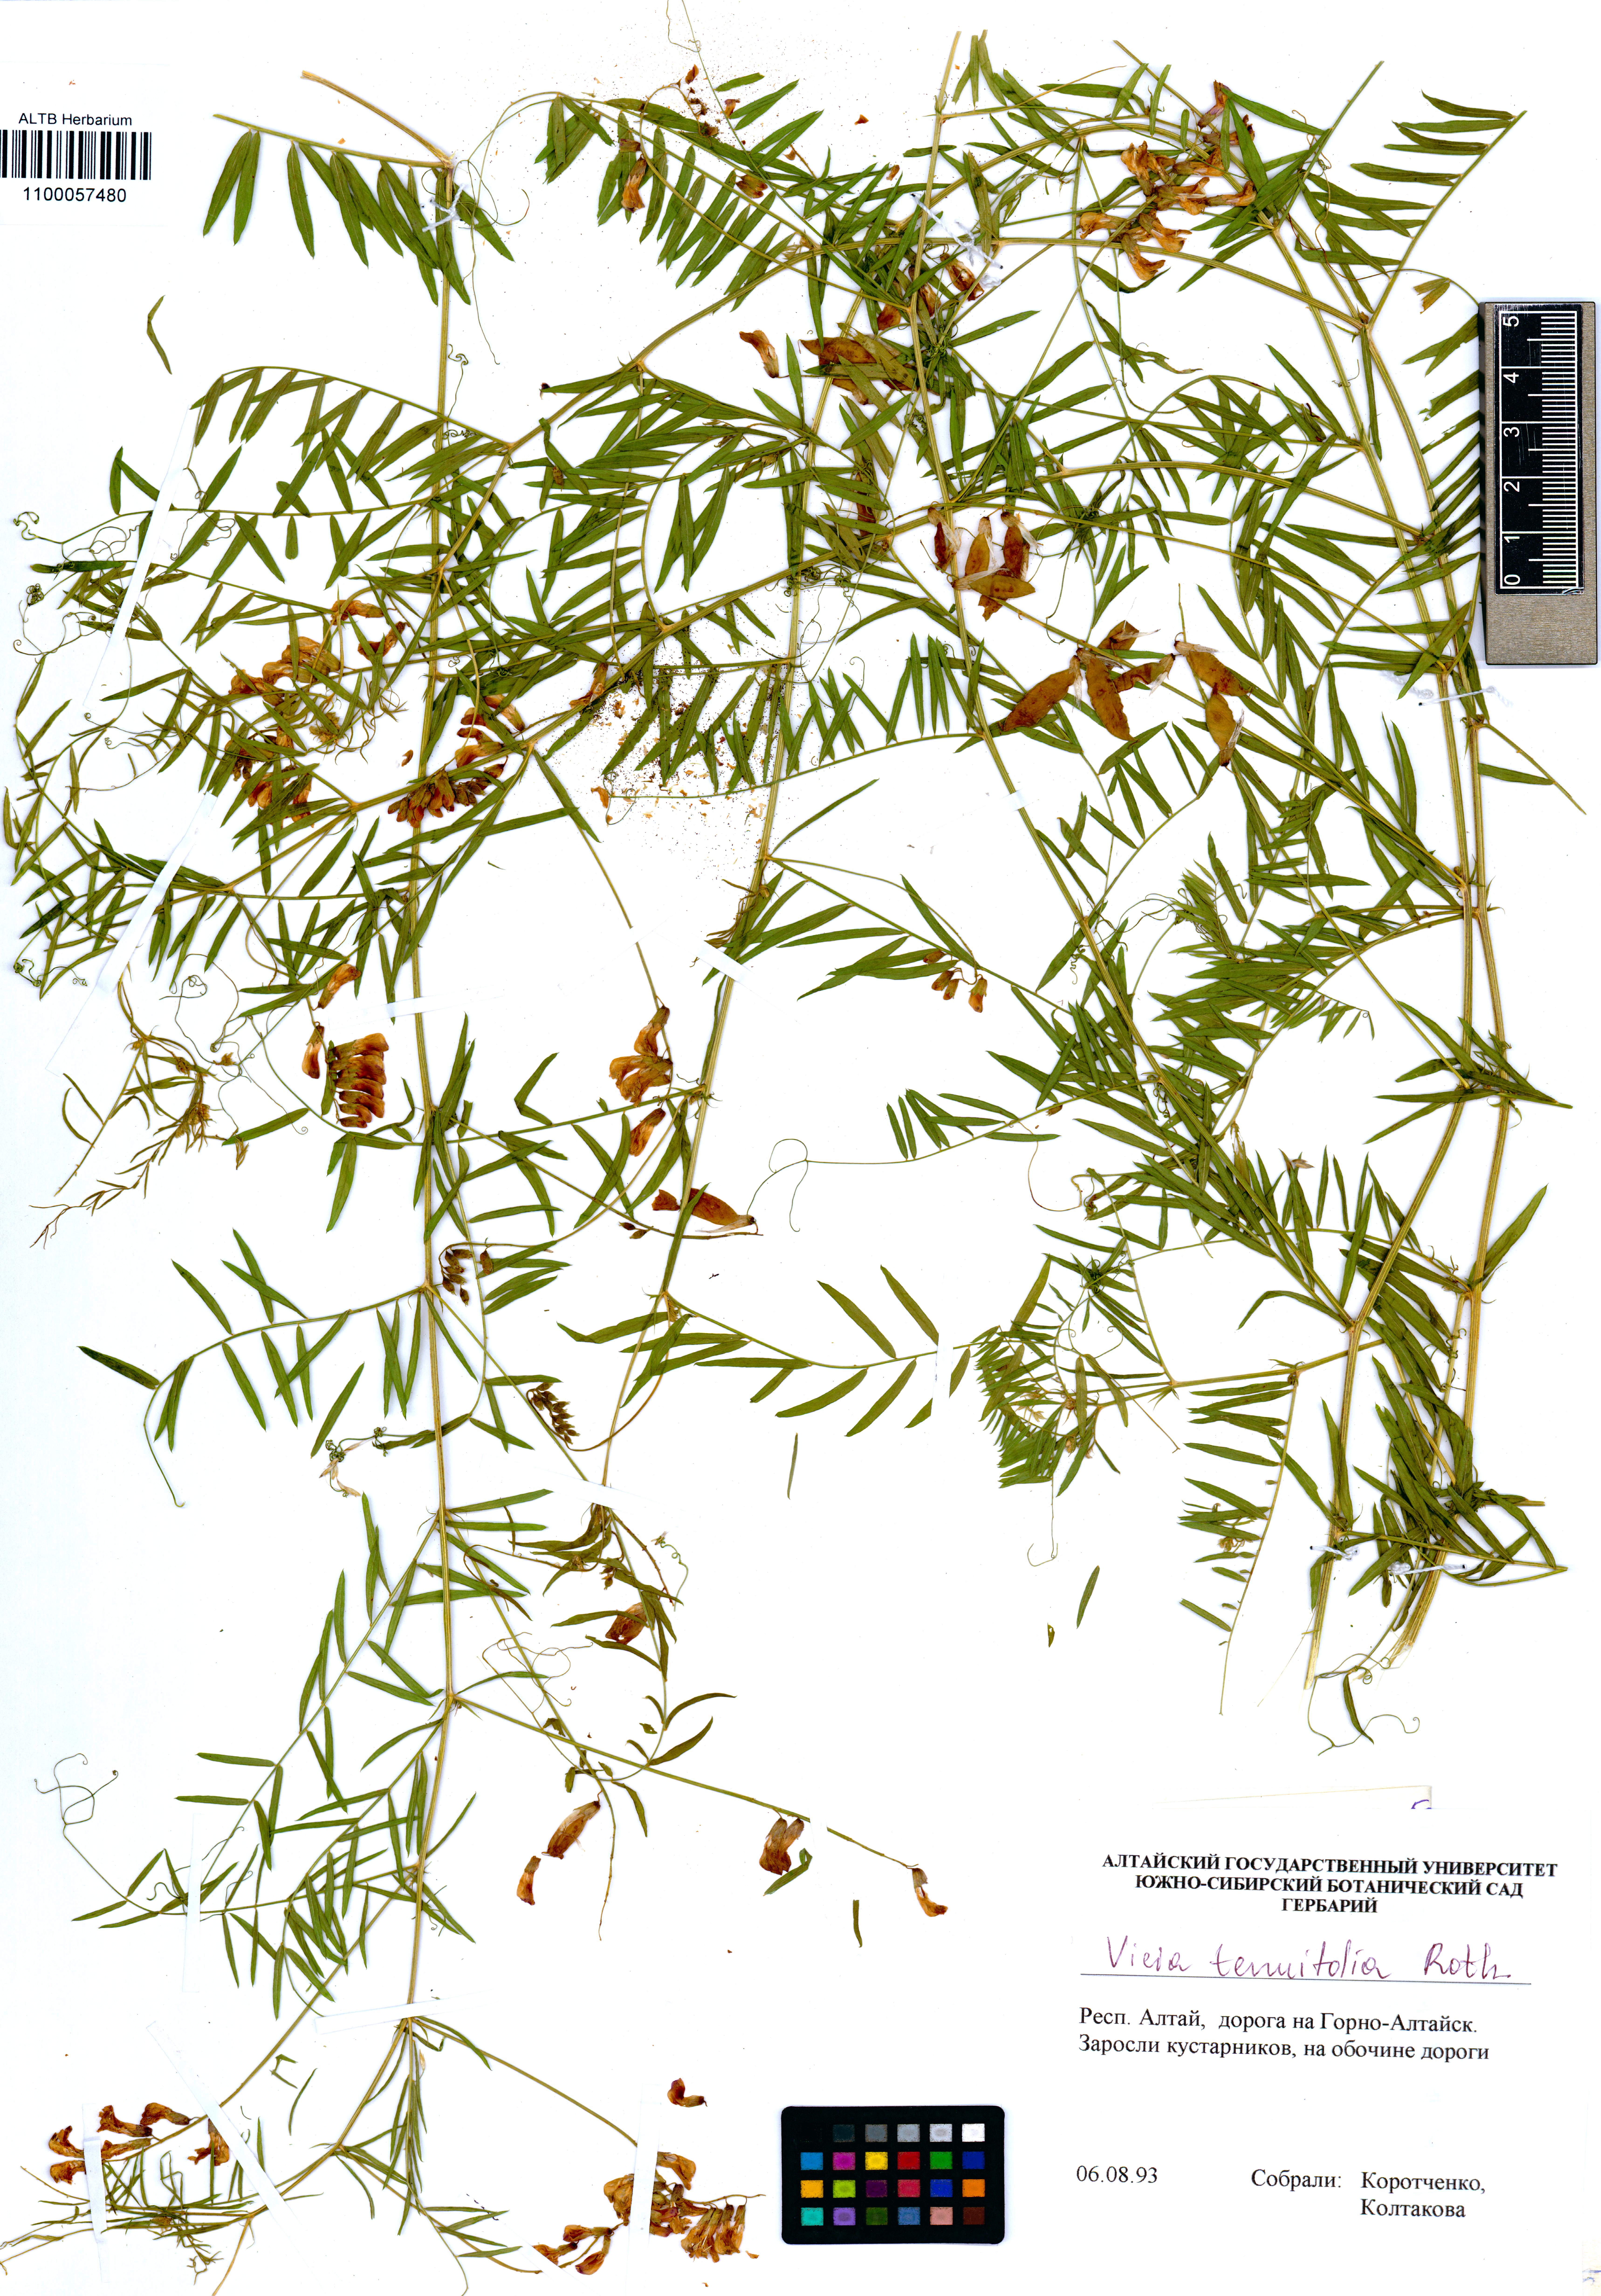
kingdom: Plantae
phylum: Tracheophyta
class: Magnoliopsida
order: Fabales
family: Fabaceae
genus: Vicia
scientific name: Vicia tenuifolia
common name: Fine-leaved vetch
